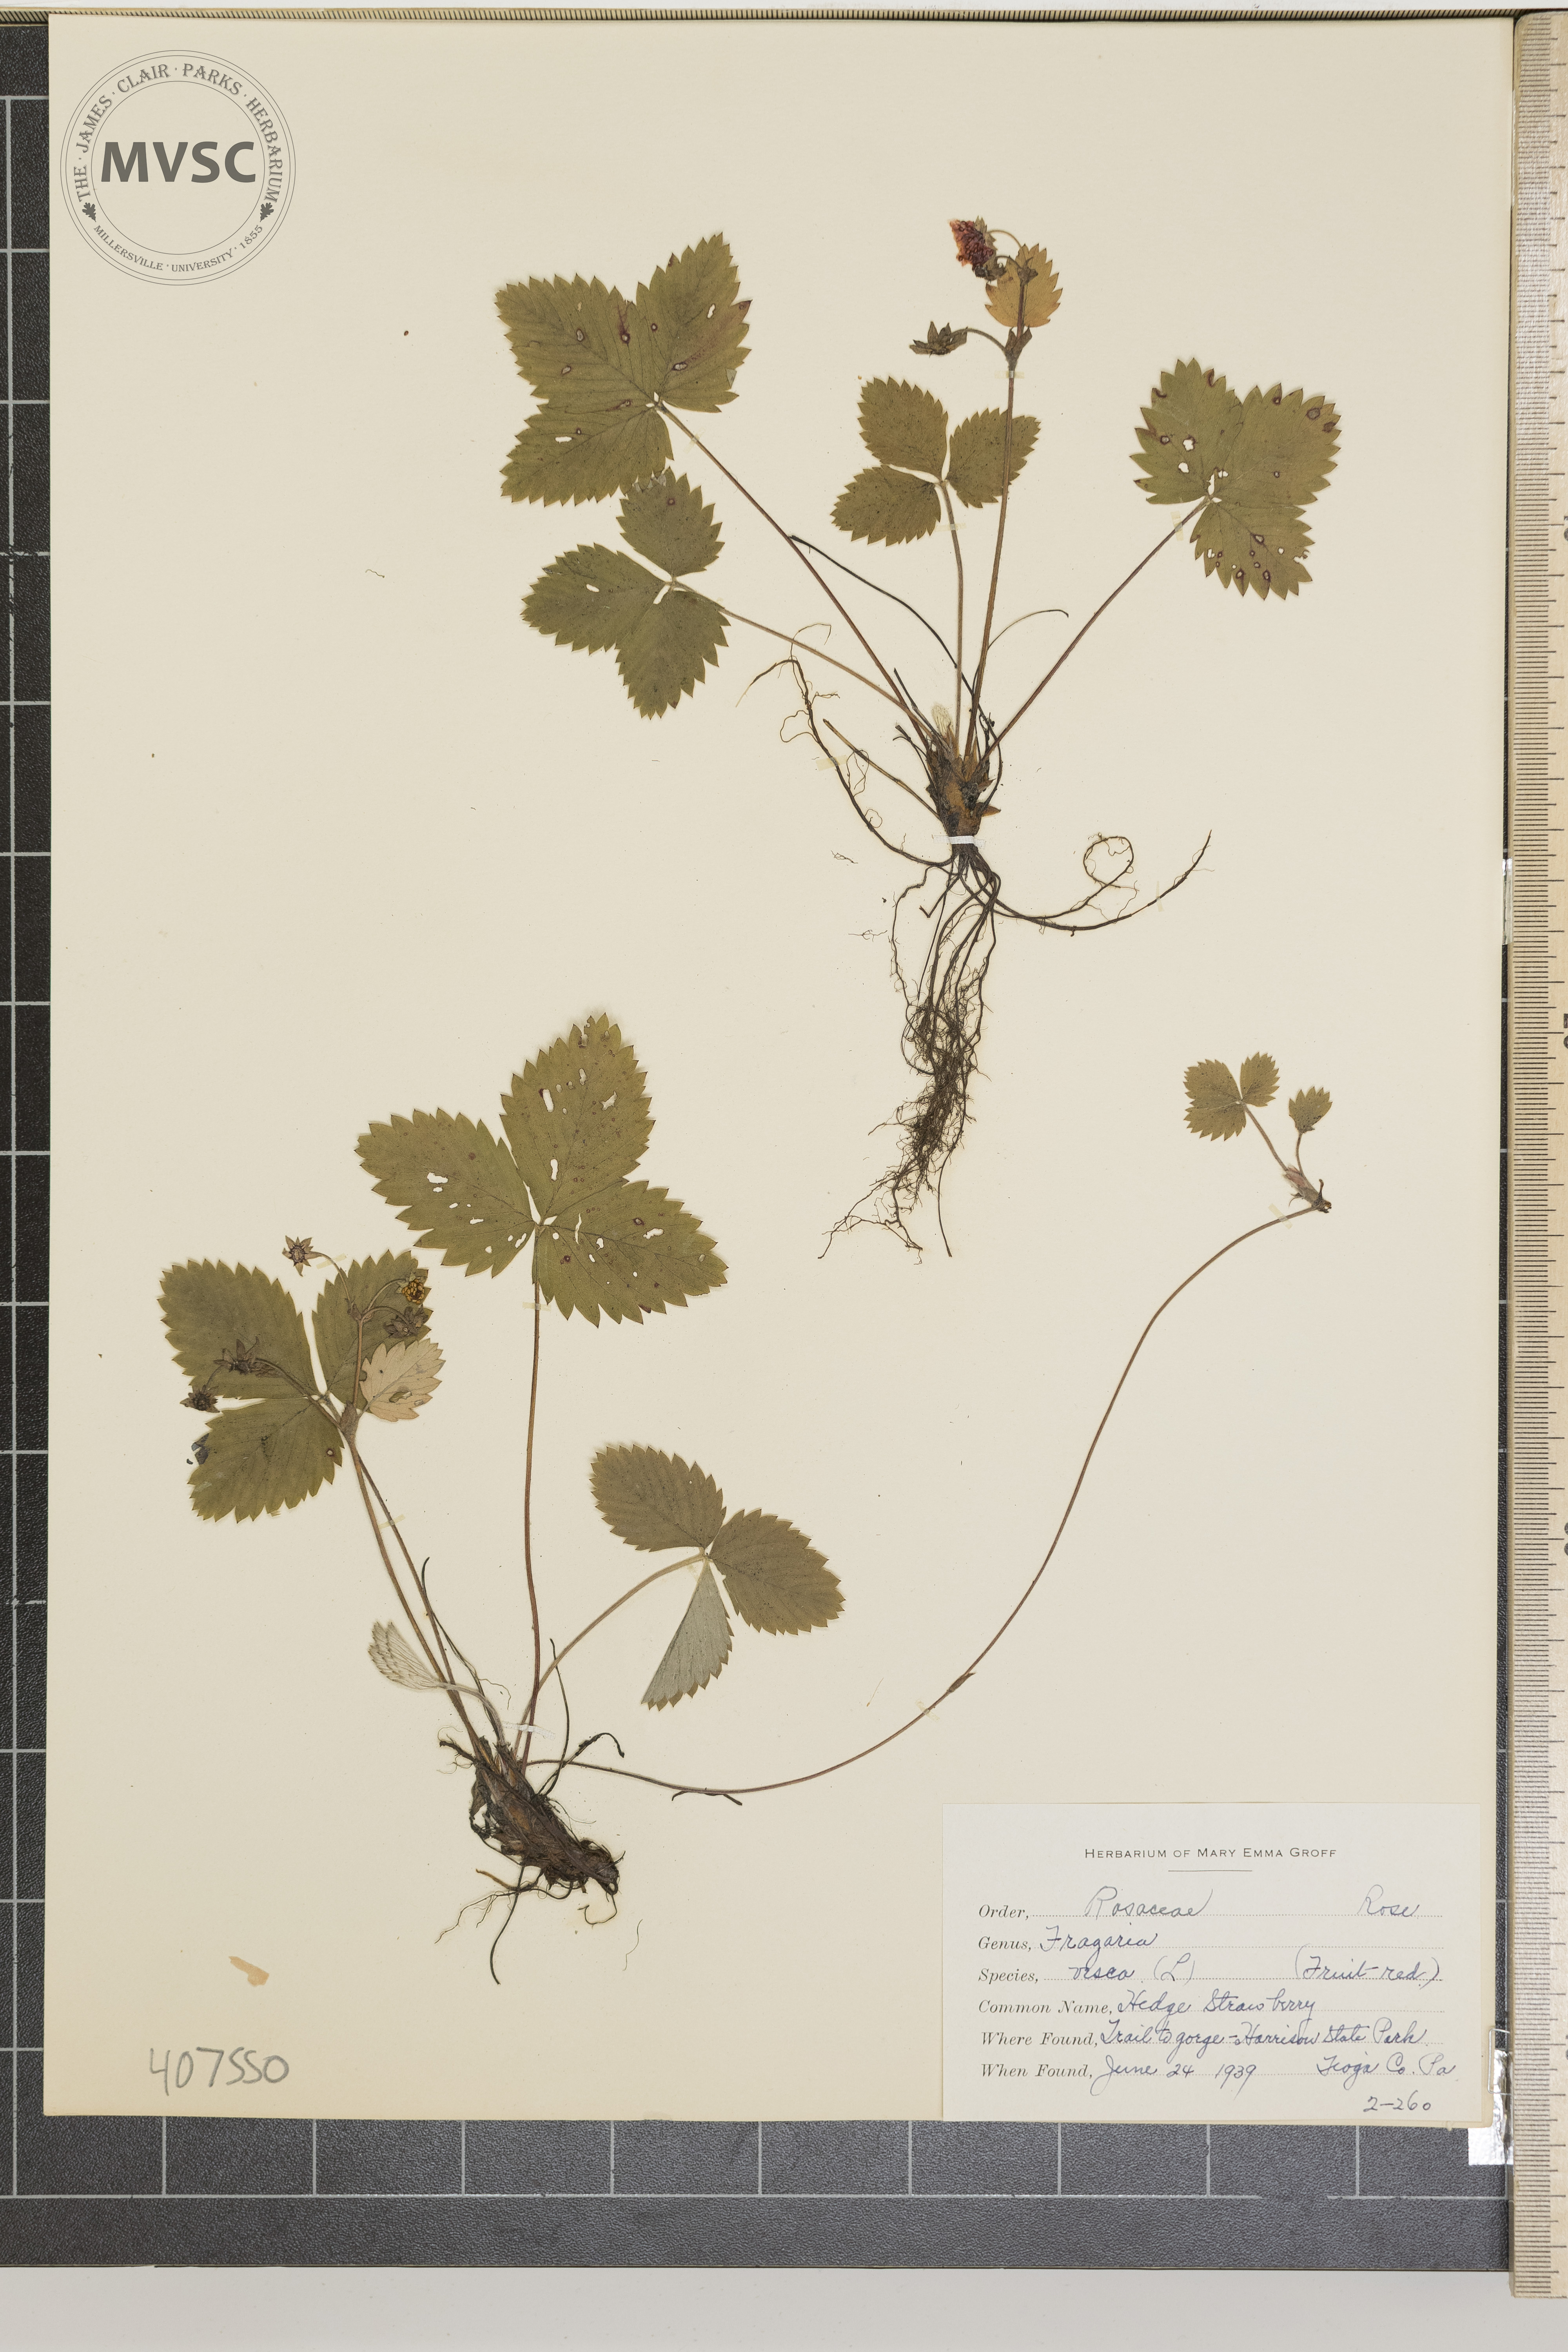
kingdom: Plantae
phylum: Tracheophyta
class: Magnoliopsida
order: Rosales
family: Rosaceae
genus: Fragaria
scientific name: Fragaria vesca
